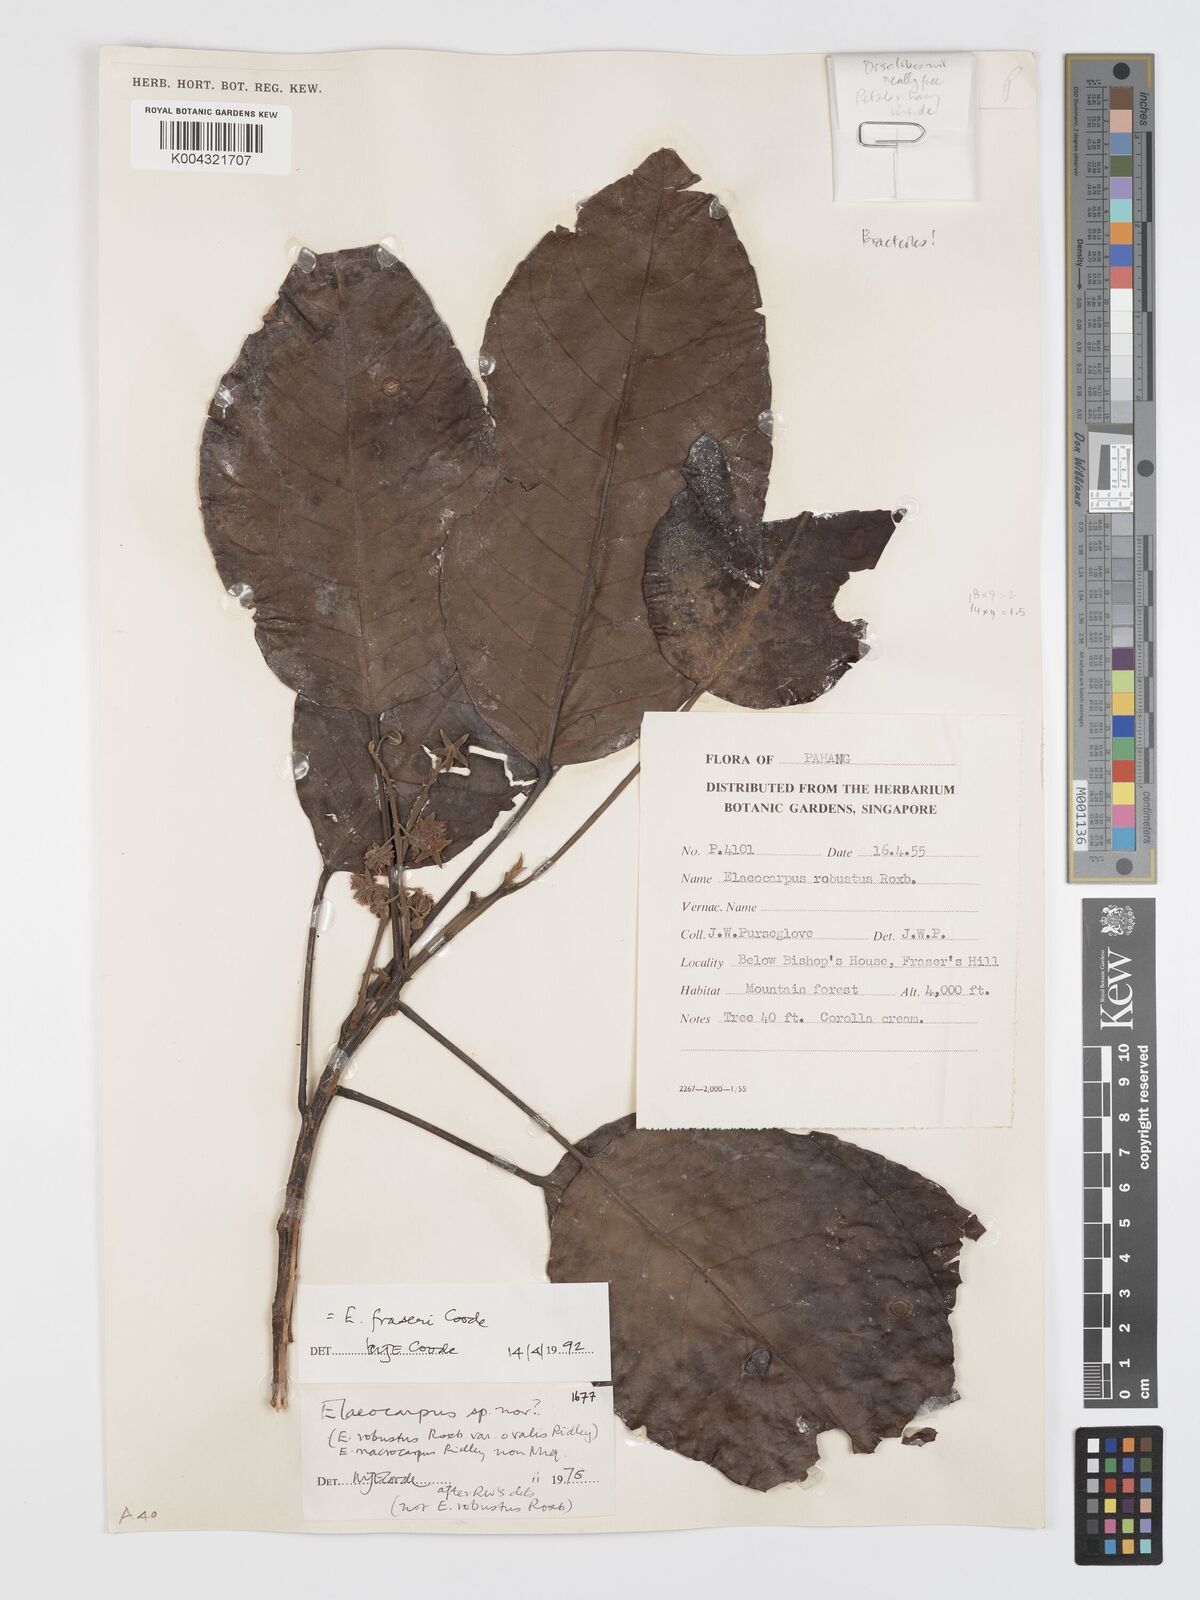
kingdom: Plantae
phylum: Tracheophyta
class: Magnoliopsida
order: Oxalidales
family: Elaeocarpaceae
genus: Elaeocarpus
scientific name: Elaeocarpus robustus
